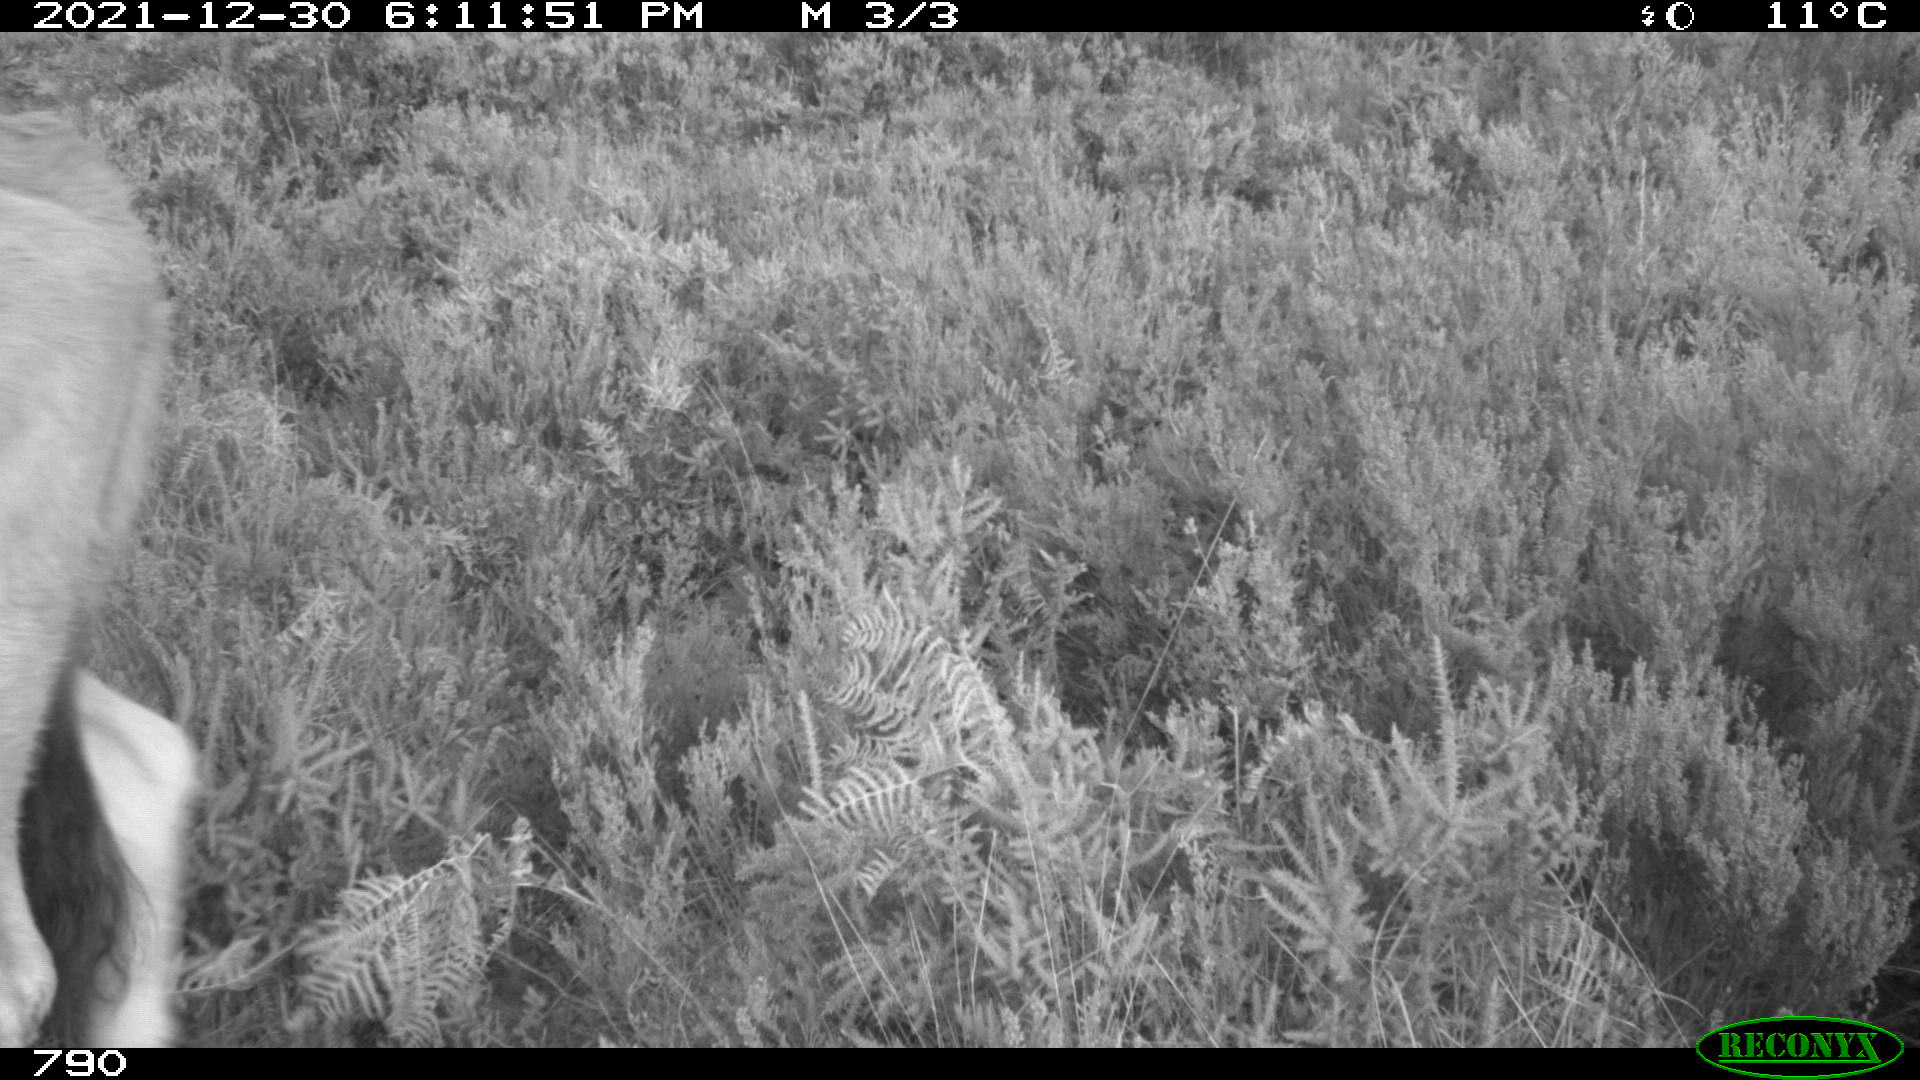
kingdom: Animalia
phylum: Chordata
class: Mammalia
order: Artiodactyla
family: Bovidae
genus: Bos
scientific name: Bos taurus
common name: Domesticated cattle
